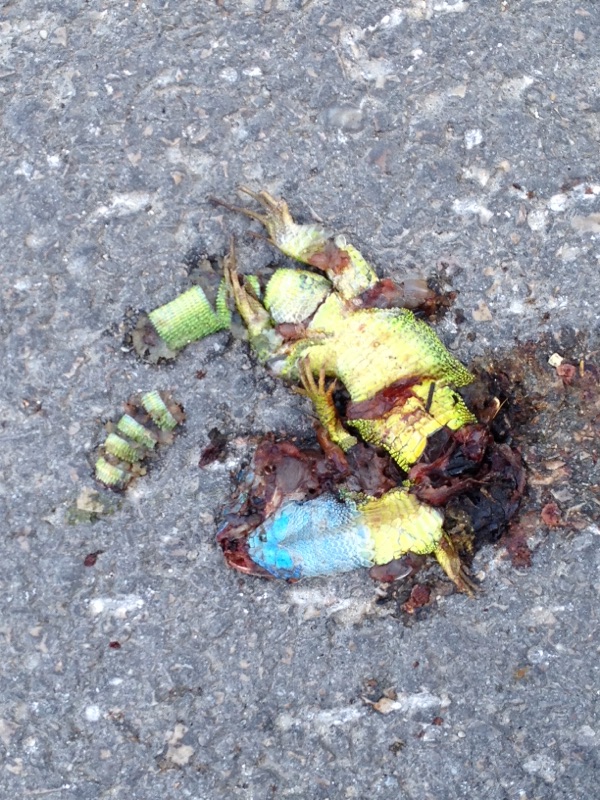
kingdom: Animalia
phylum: Chordata
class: Squamata
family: Lacertidae
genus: Lacerta
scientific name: Lacerta viridis
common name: European green lizard
